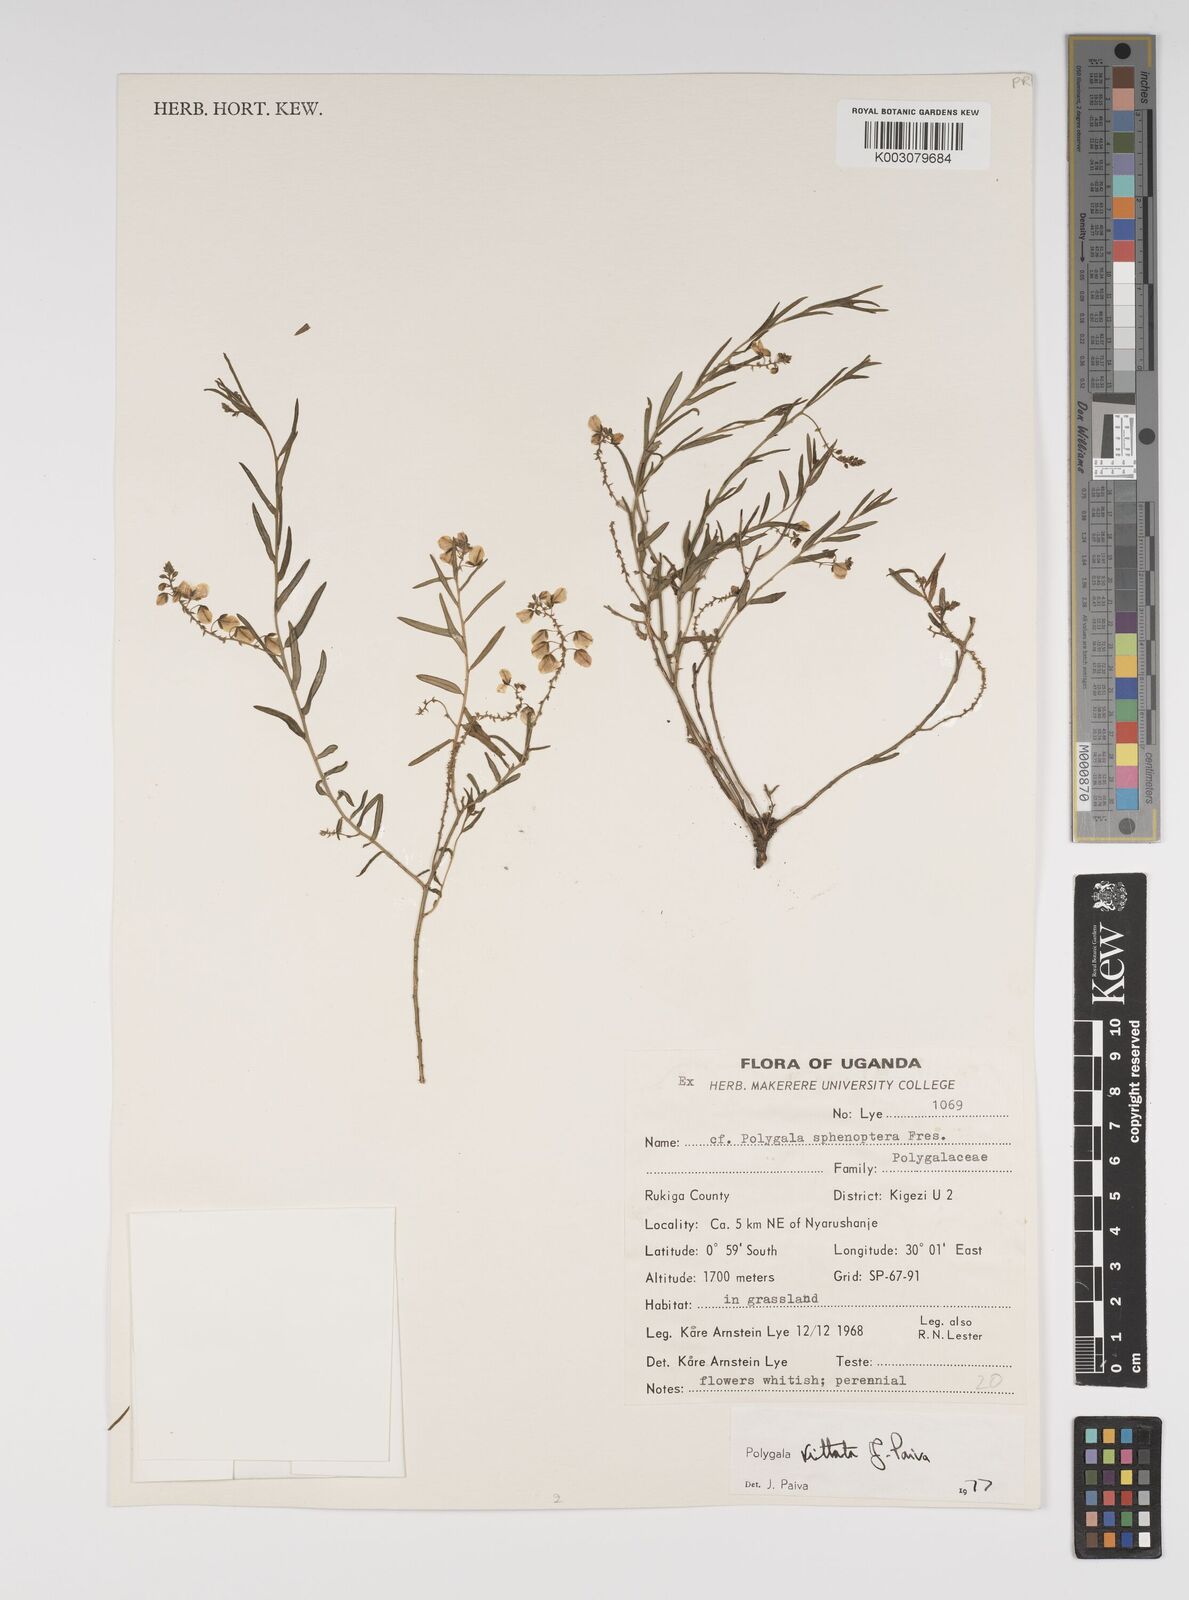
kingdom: Plantae
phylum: Tracheophyta
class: Magnoliopsida
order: Fabales
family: Polygalaceae
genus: Polygala
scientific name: Polygala vittata
